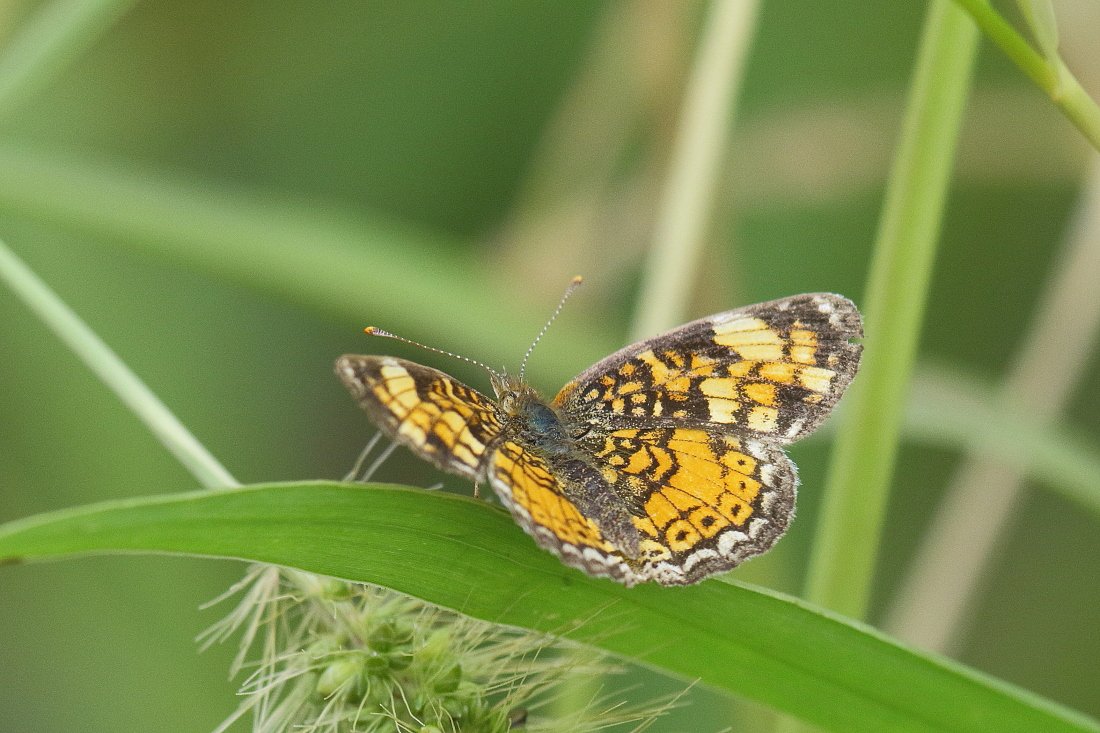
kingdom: Animalia
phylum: Arthropoda
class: Insecta
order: Lepidoptera
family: Nymphalidae
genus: Phyciodes
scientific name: Phyciodes tharos
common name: Northern Crescent
